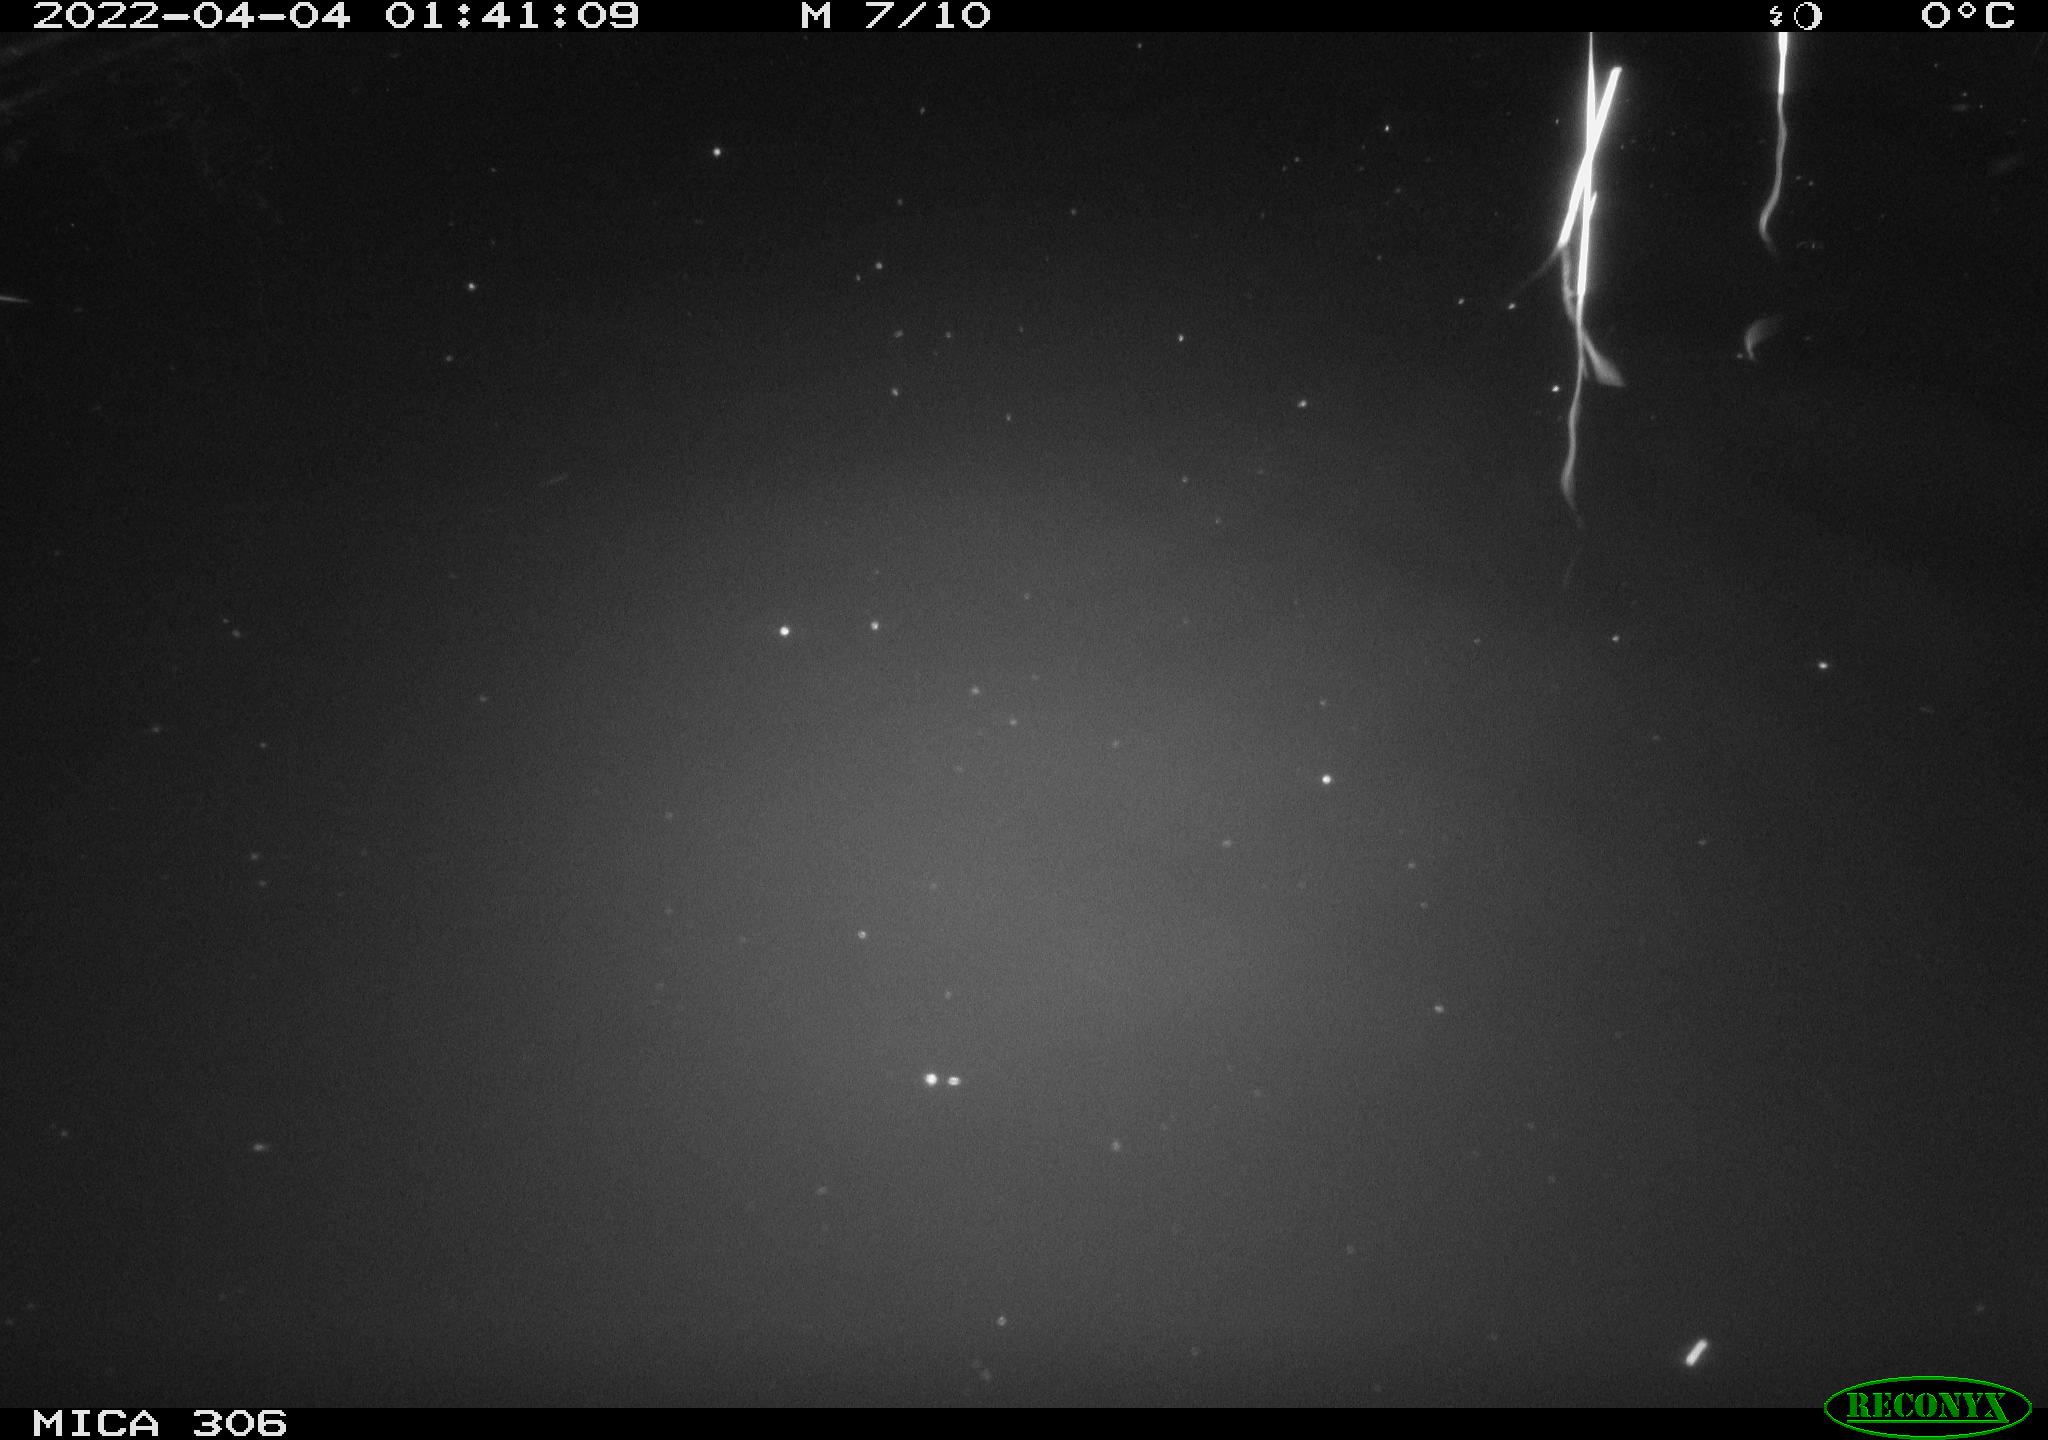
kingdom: Animalia
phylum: Chordata
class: Mammalia
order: Rodentia
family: Cricetidae
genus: Ondatra
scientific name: Ondatra zibethicus
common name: Muskrat
